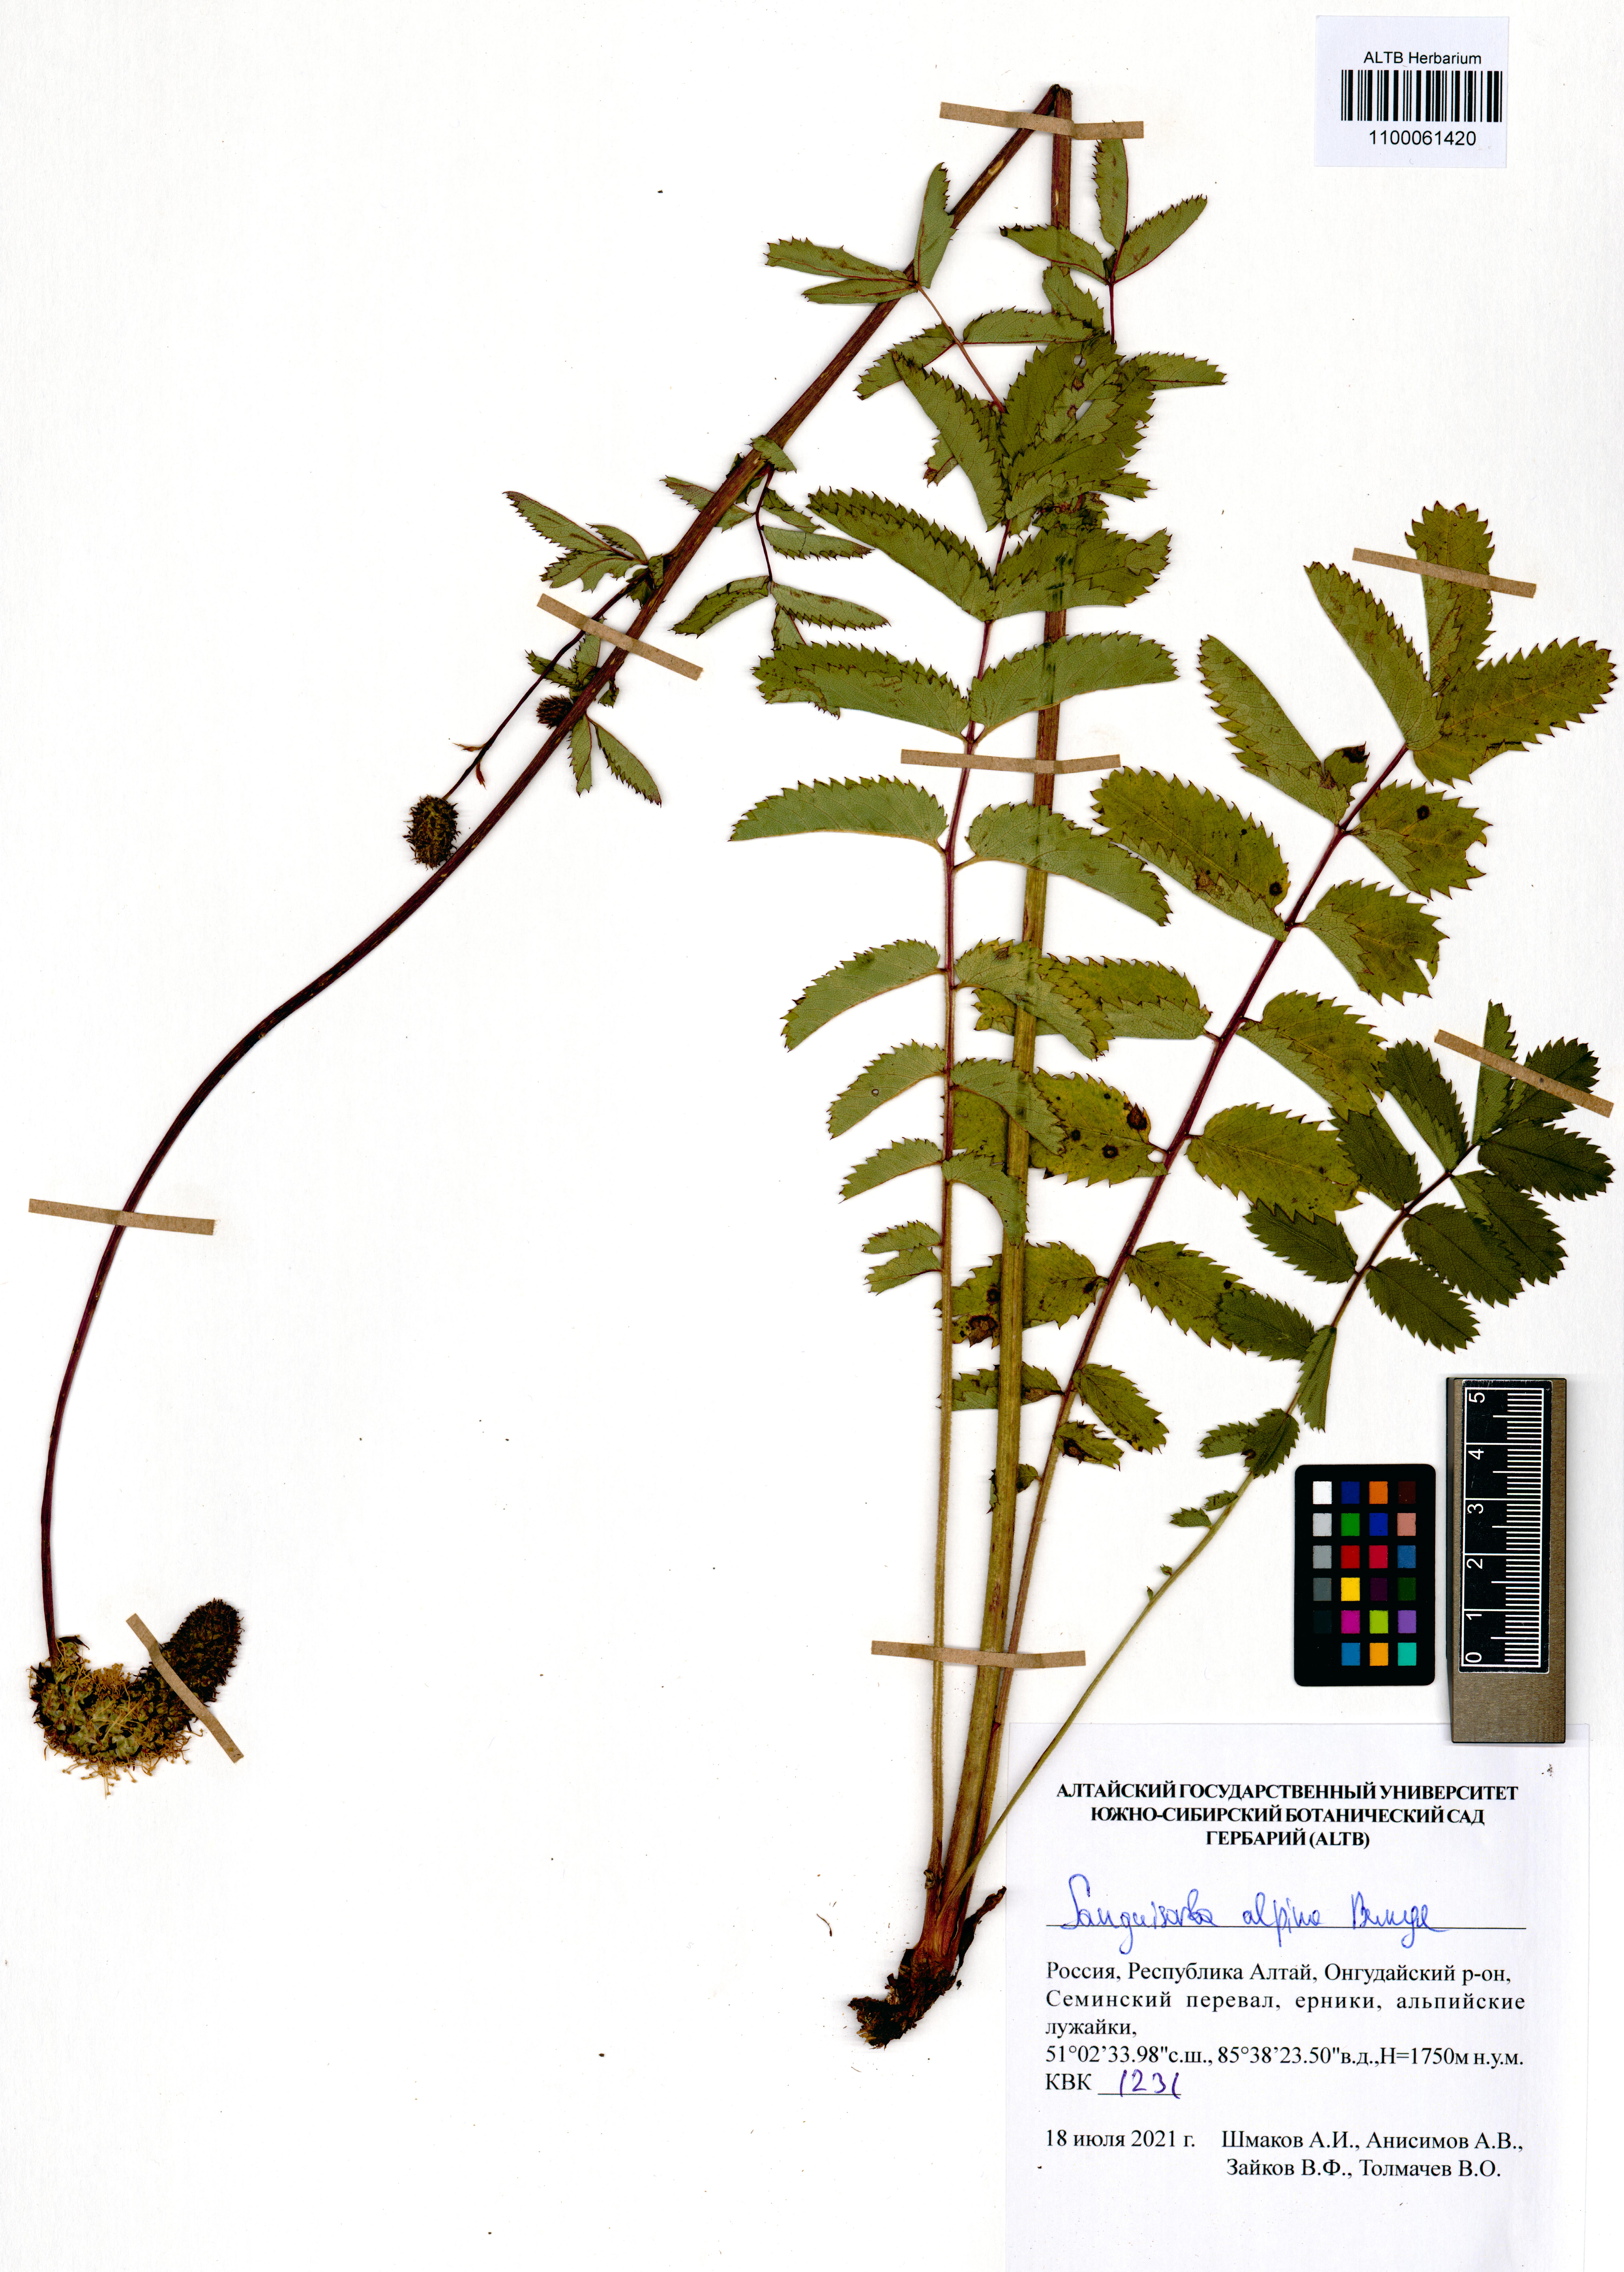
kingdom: Plantae
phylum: Tracheophyta
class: Magnoliopsida
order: Rosales
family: Rosaceae
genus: Sanguisorba
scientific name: Sanguisorba alpina
